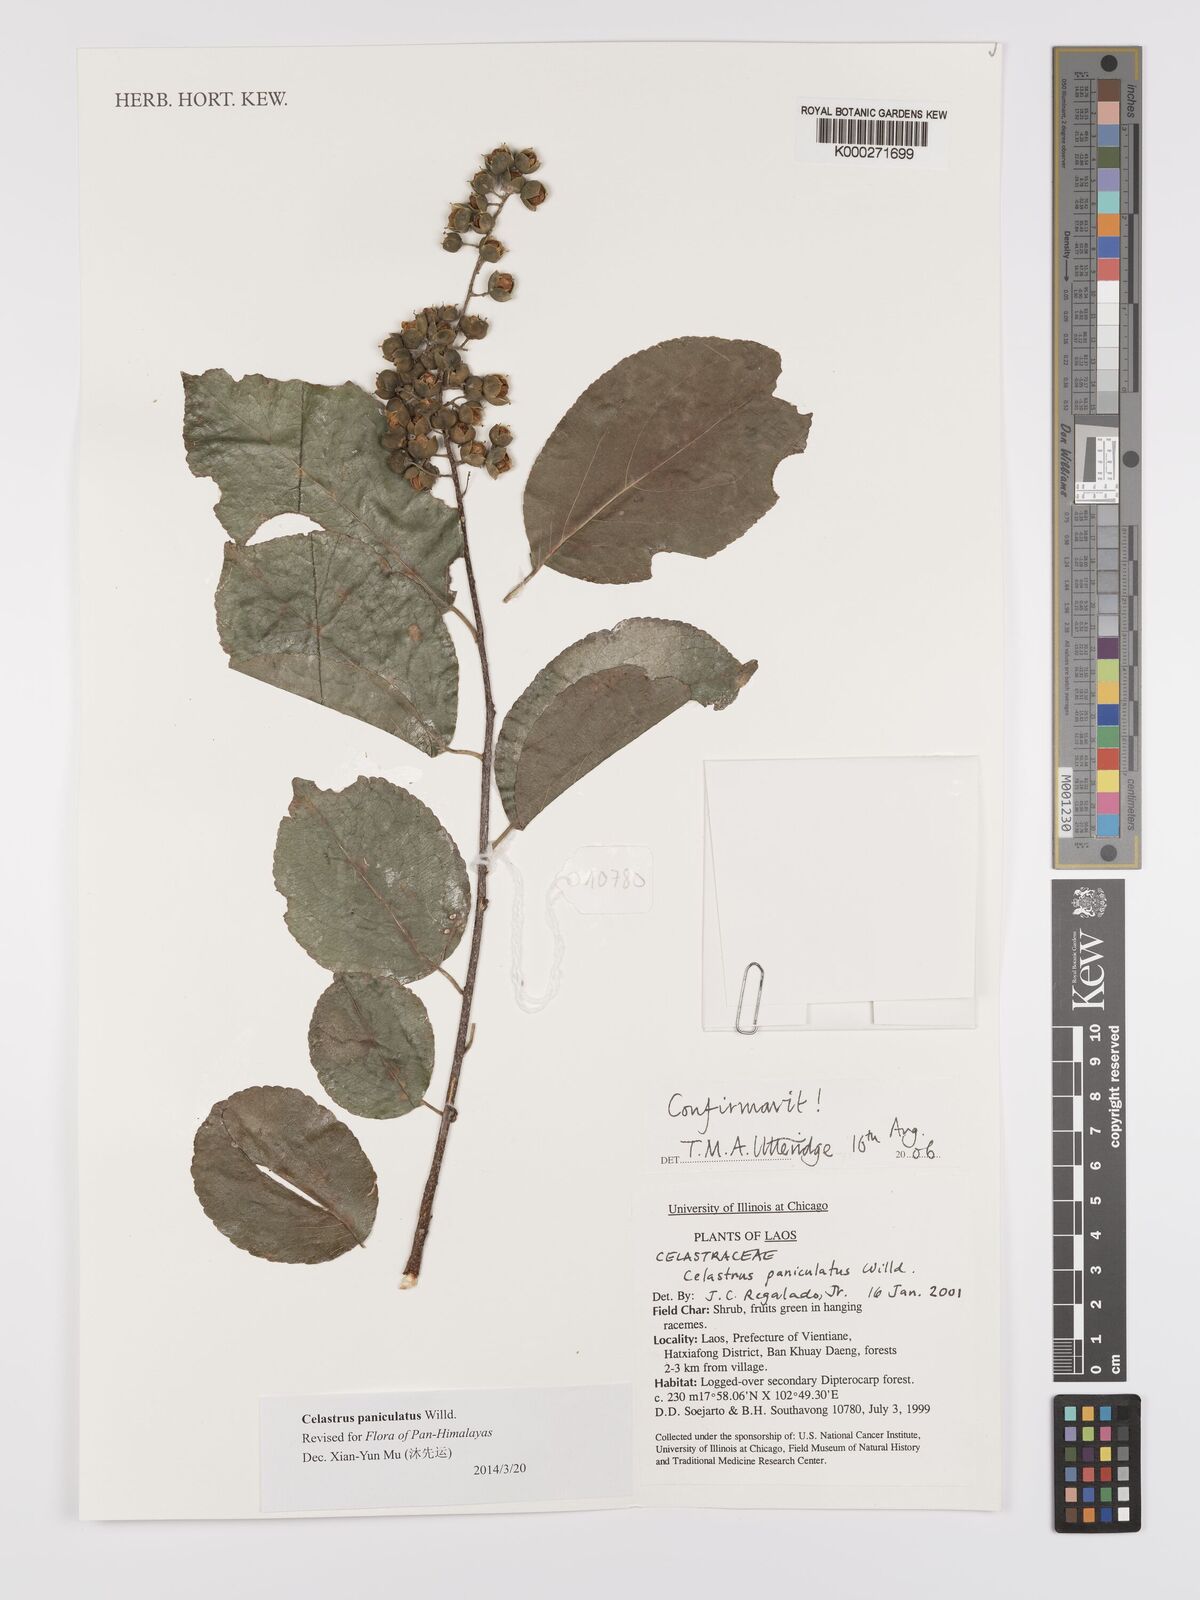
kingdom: Plantae
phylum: Tracheophyta
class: Magnoliopsida
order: Celastrales
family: Celastraceae
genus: Celastrus
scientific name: Celastrus paniculatus
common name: Oriental bittersweet; staff vine
